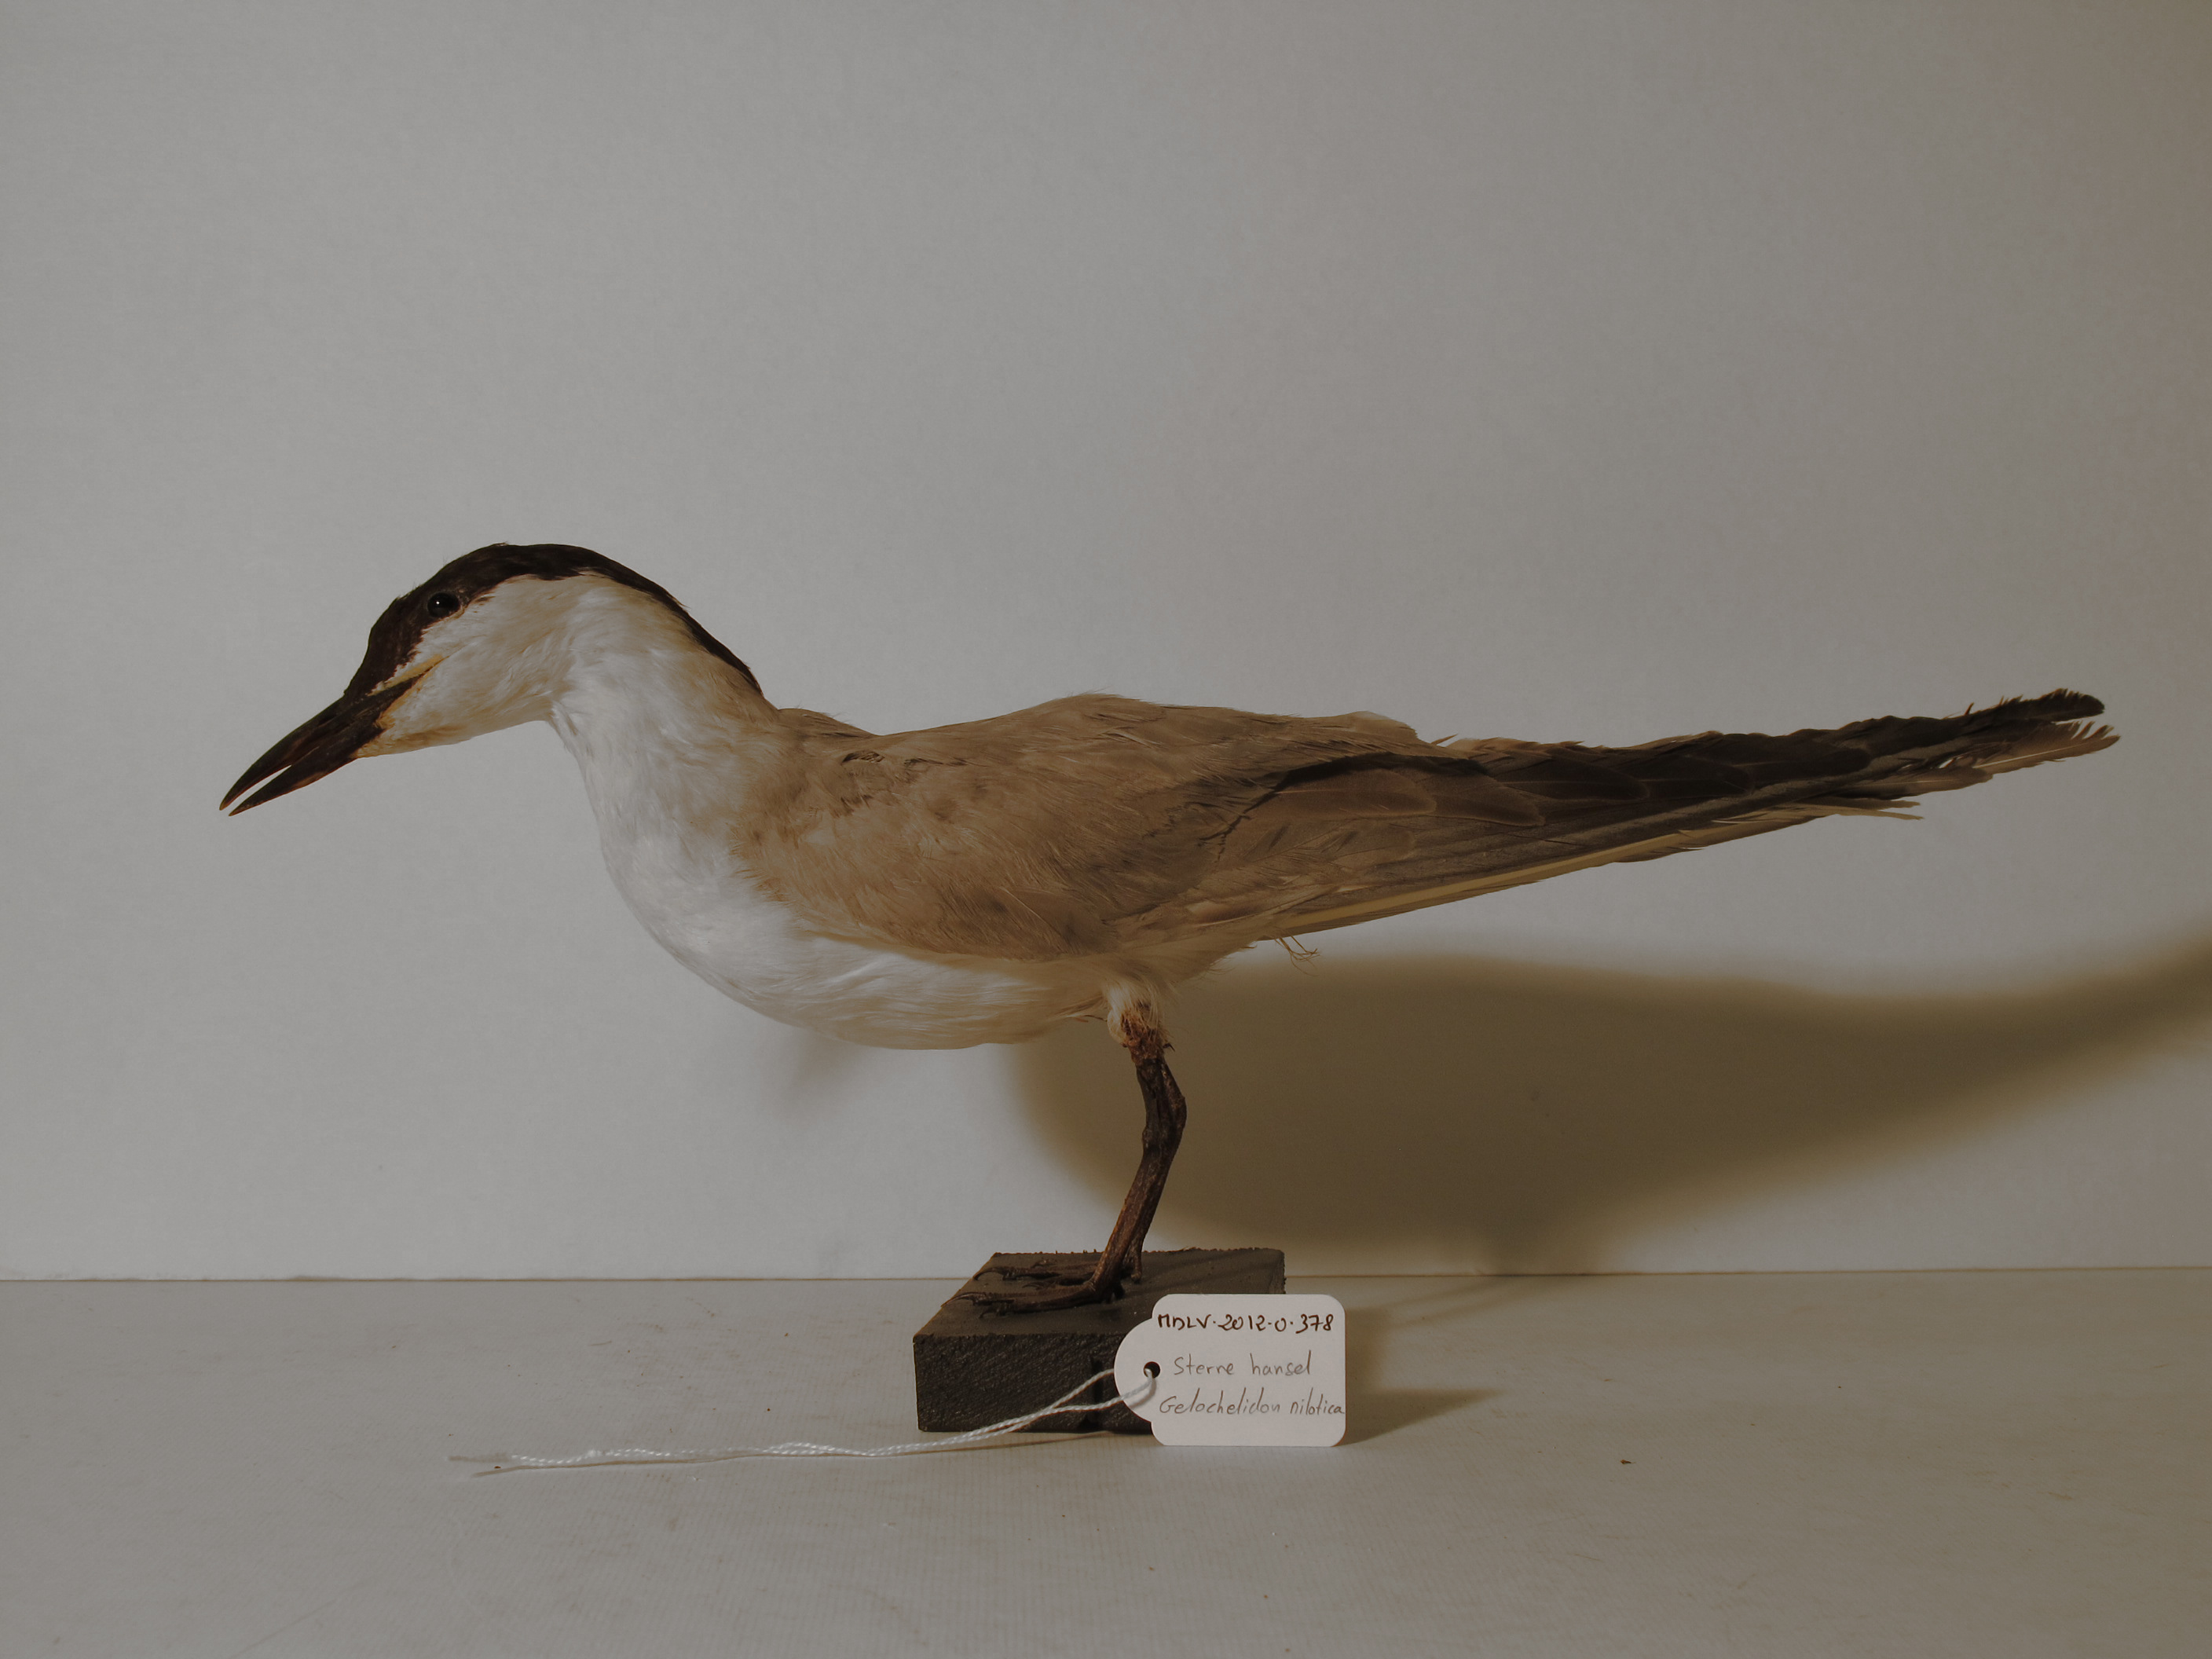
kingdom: Animalia
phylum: Chordata
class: Aves
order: Charadriiformes
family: Laridae
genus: Gelochelidon
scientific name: Gelochelidon nilotica
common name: Gull-billed Tern
